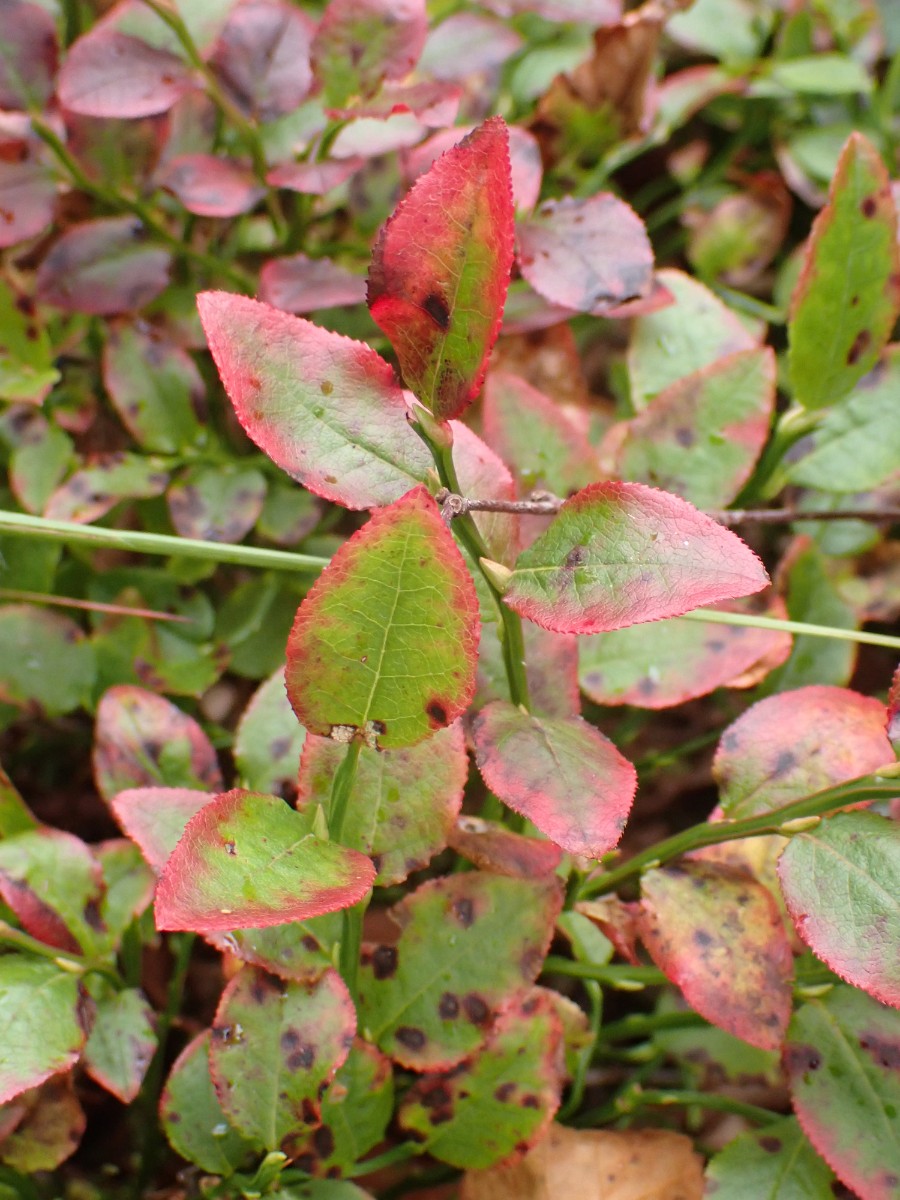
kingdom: Fungi
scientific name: Fungi
